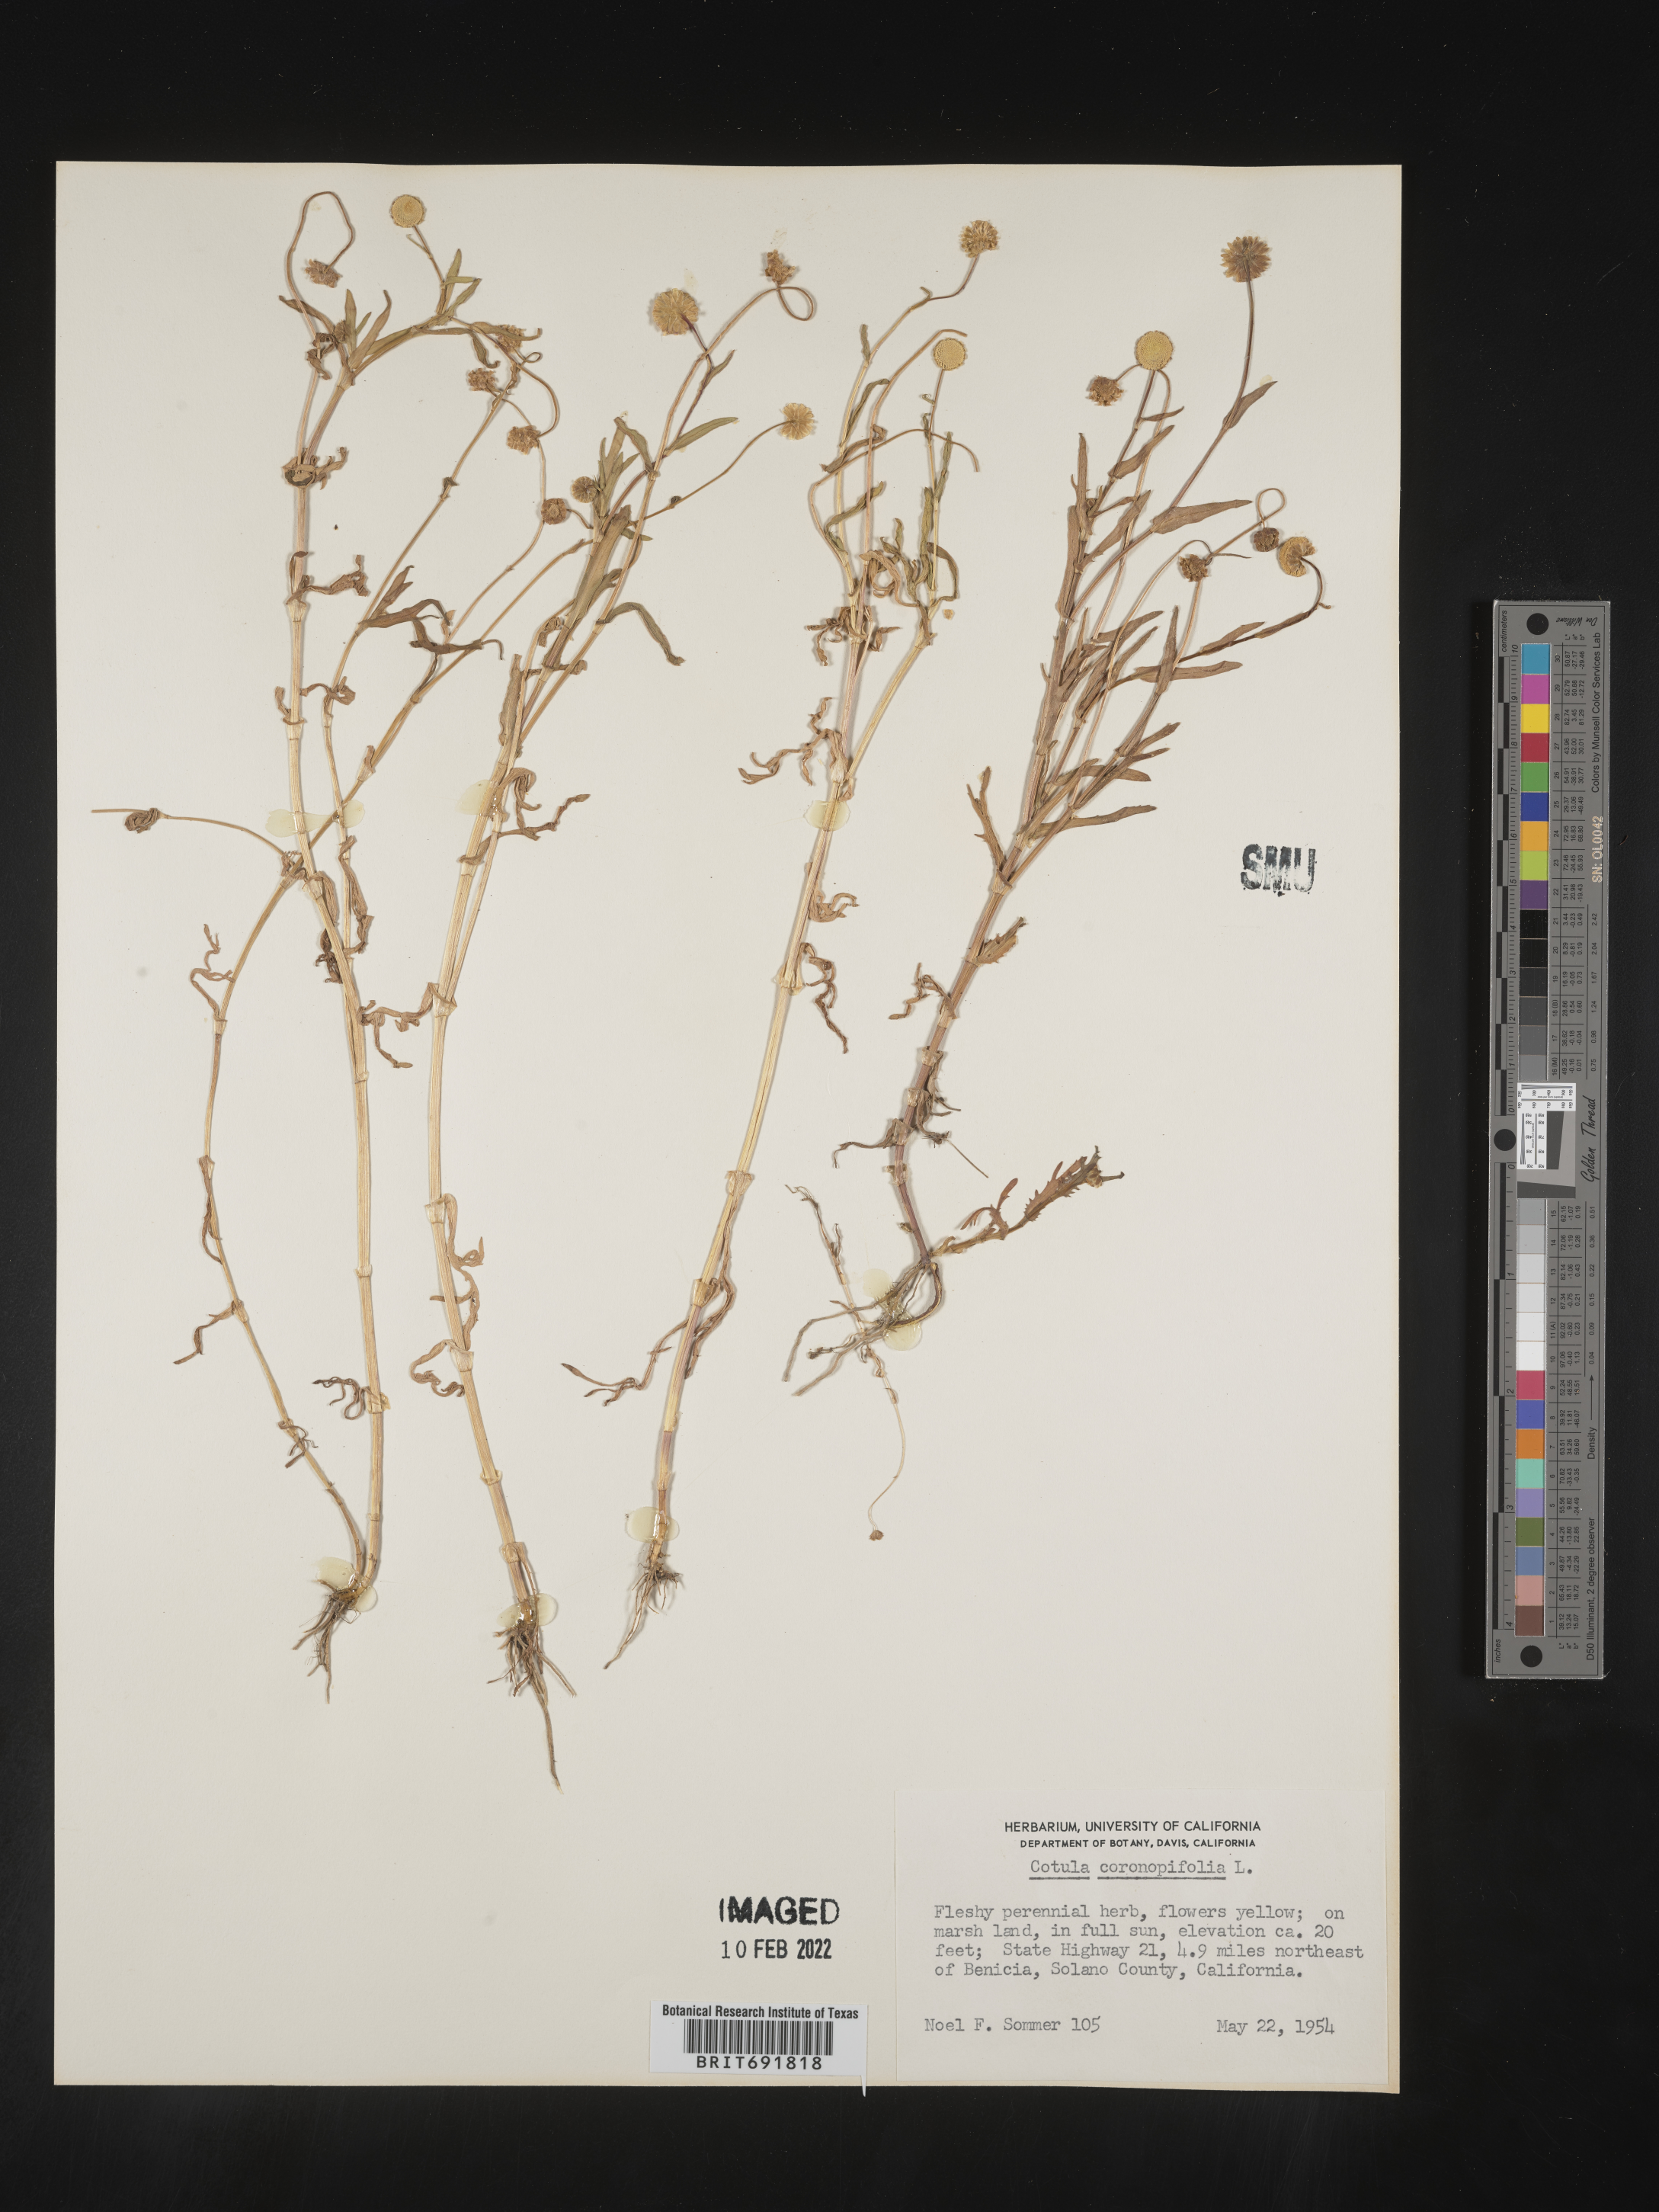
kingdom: Plantae
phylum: Tracheophyta
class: Magnoliopsida
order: Asterales
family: Asteraceae
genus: Cotula
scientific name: Cotula
